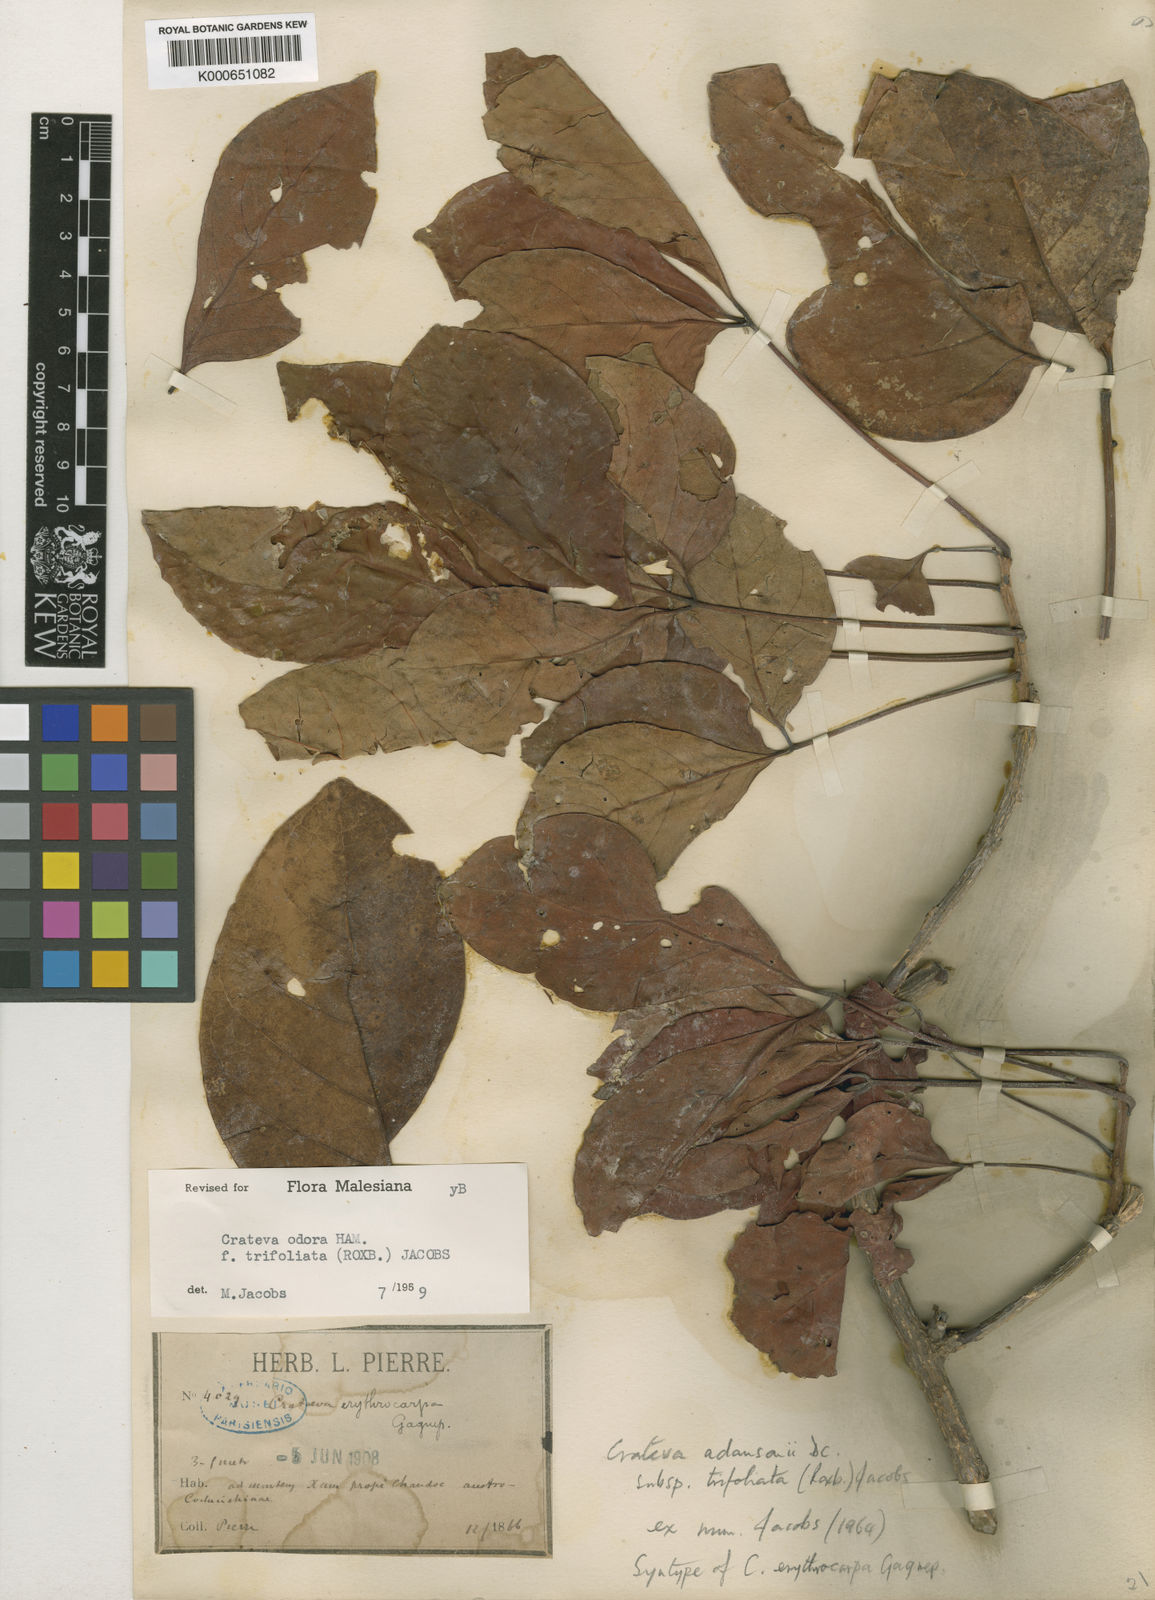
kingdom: Plantae
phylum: Tracheophyta
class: Magnoliopsida
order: Brassicales
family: Capparaceae
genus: Crateva
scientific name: Crateva adansonii
